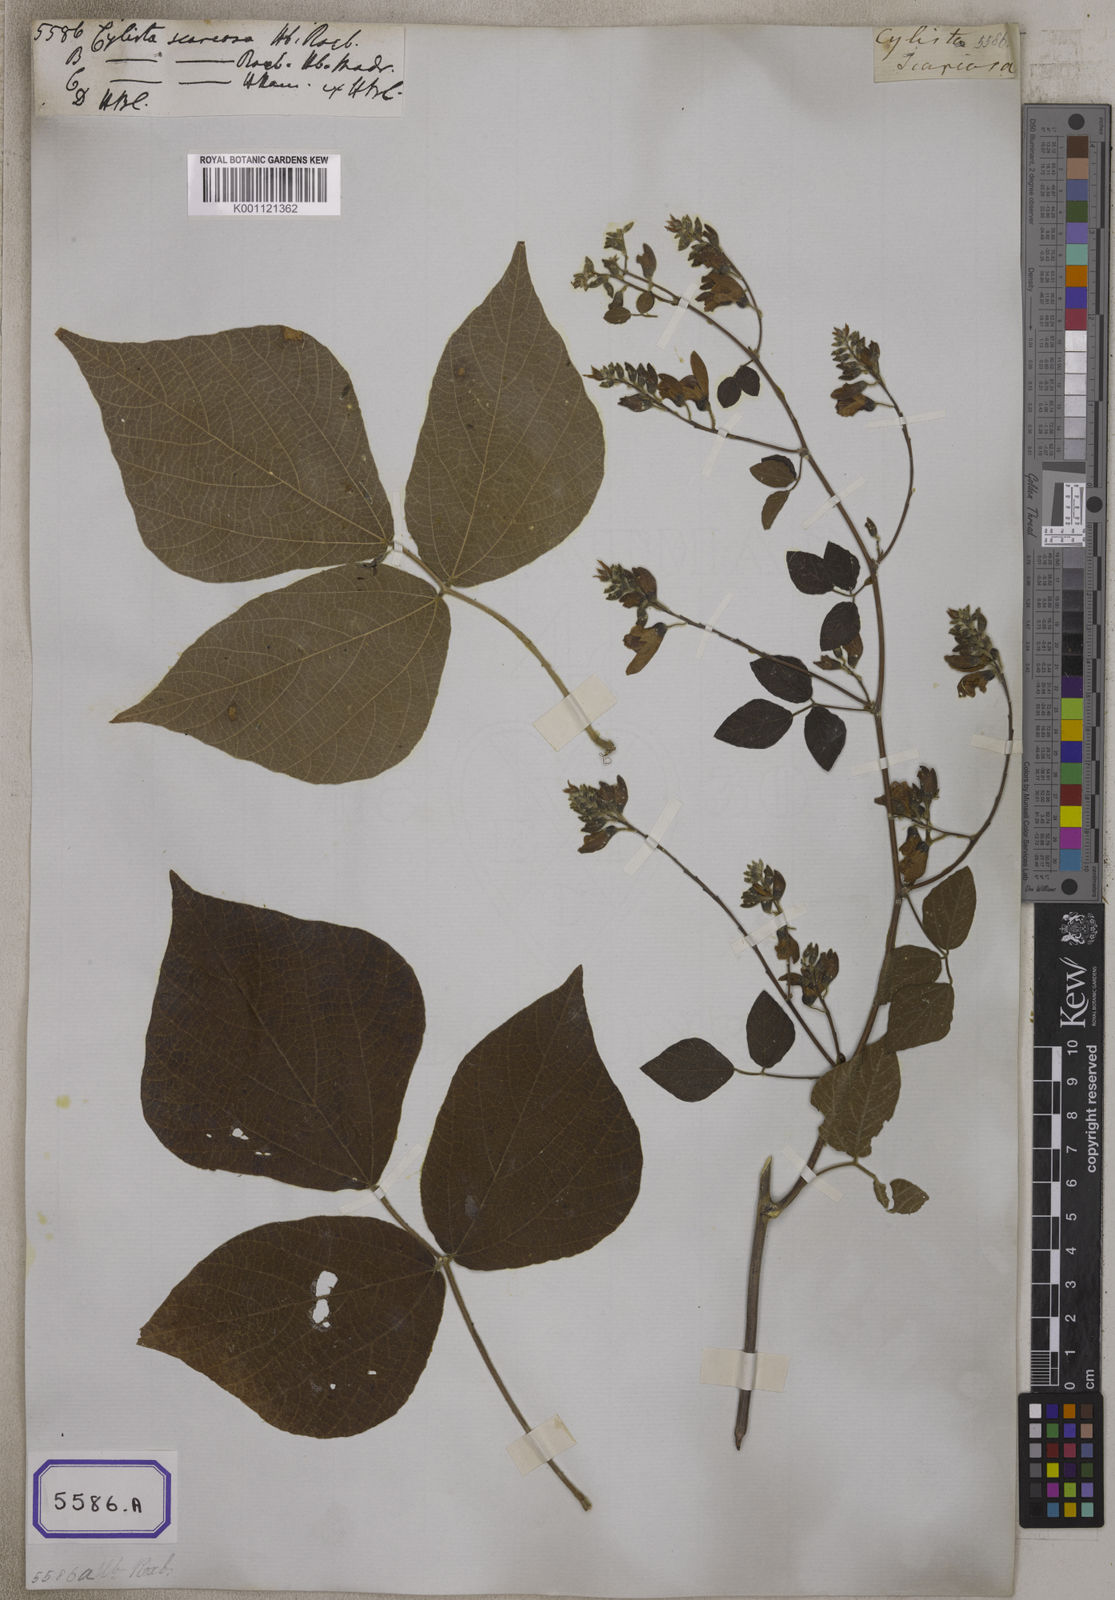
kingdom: Plantae
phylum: Tracheophyta
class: Magnoliopsida
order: Fabales
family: Fabaceae
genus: Paracalyx
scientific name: Paracalyx scariosus
